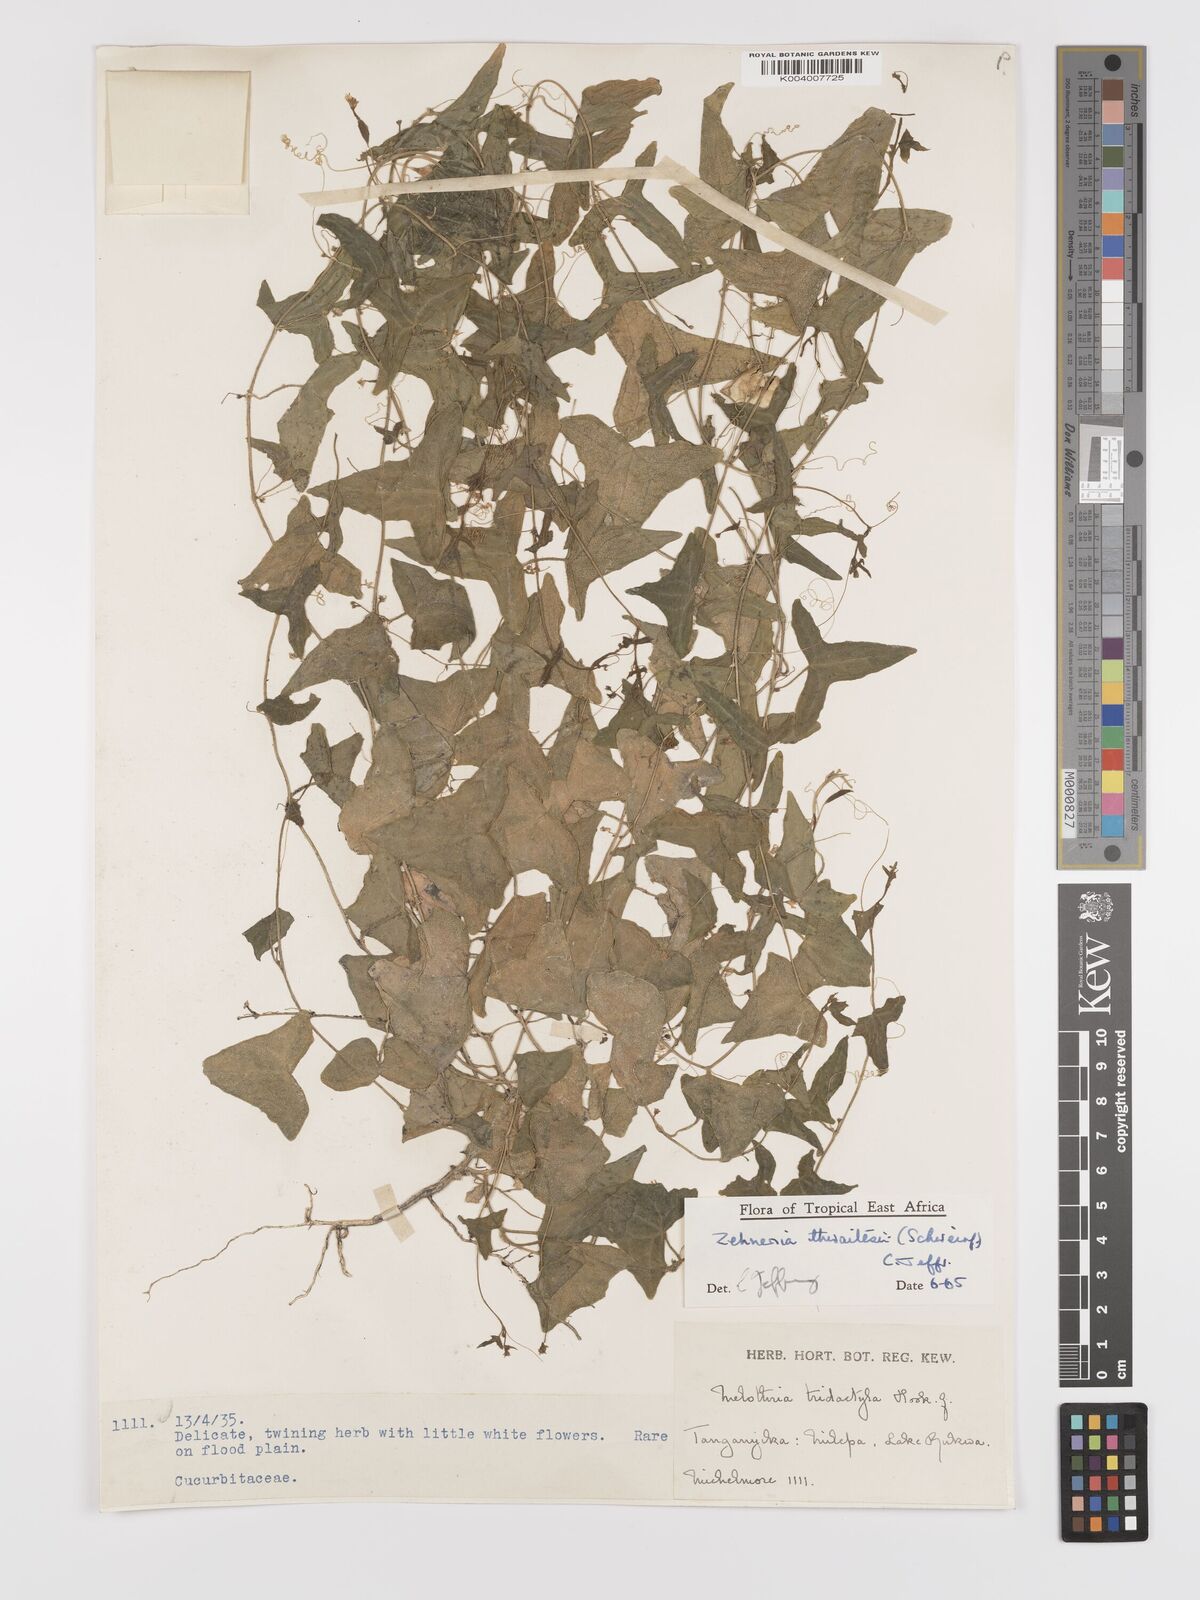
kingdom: Plantae
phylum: Tracheophyta
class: Magnoliopsida
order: Cucurbitales
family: Cucurbitaceae
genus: Zehneria
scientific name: Zehneria thwaitesii
